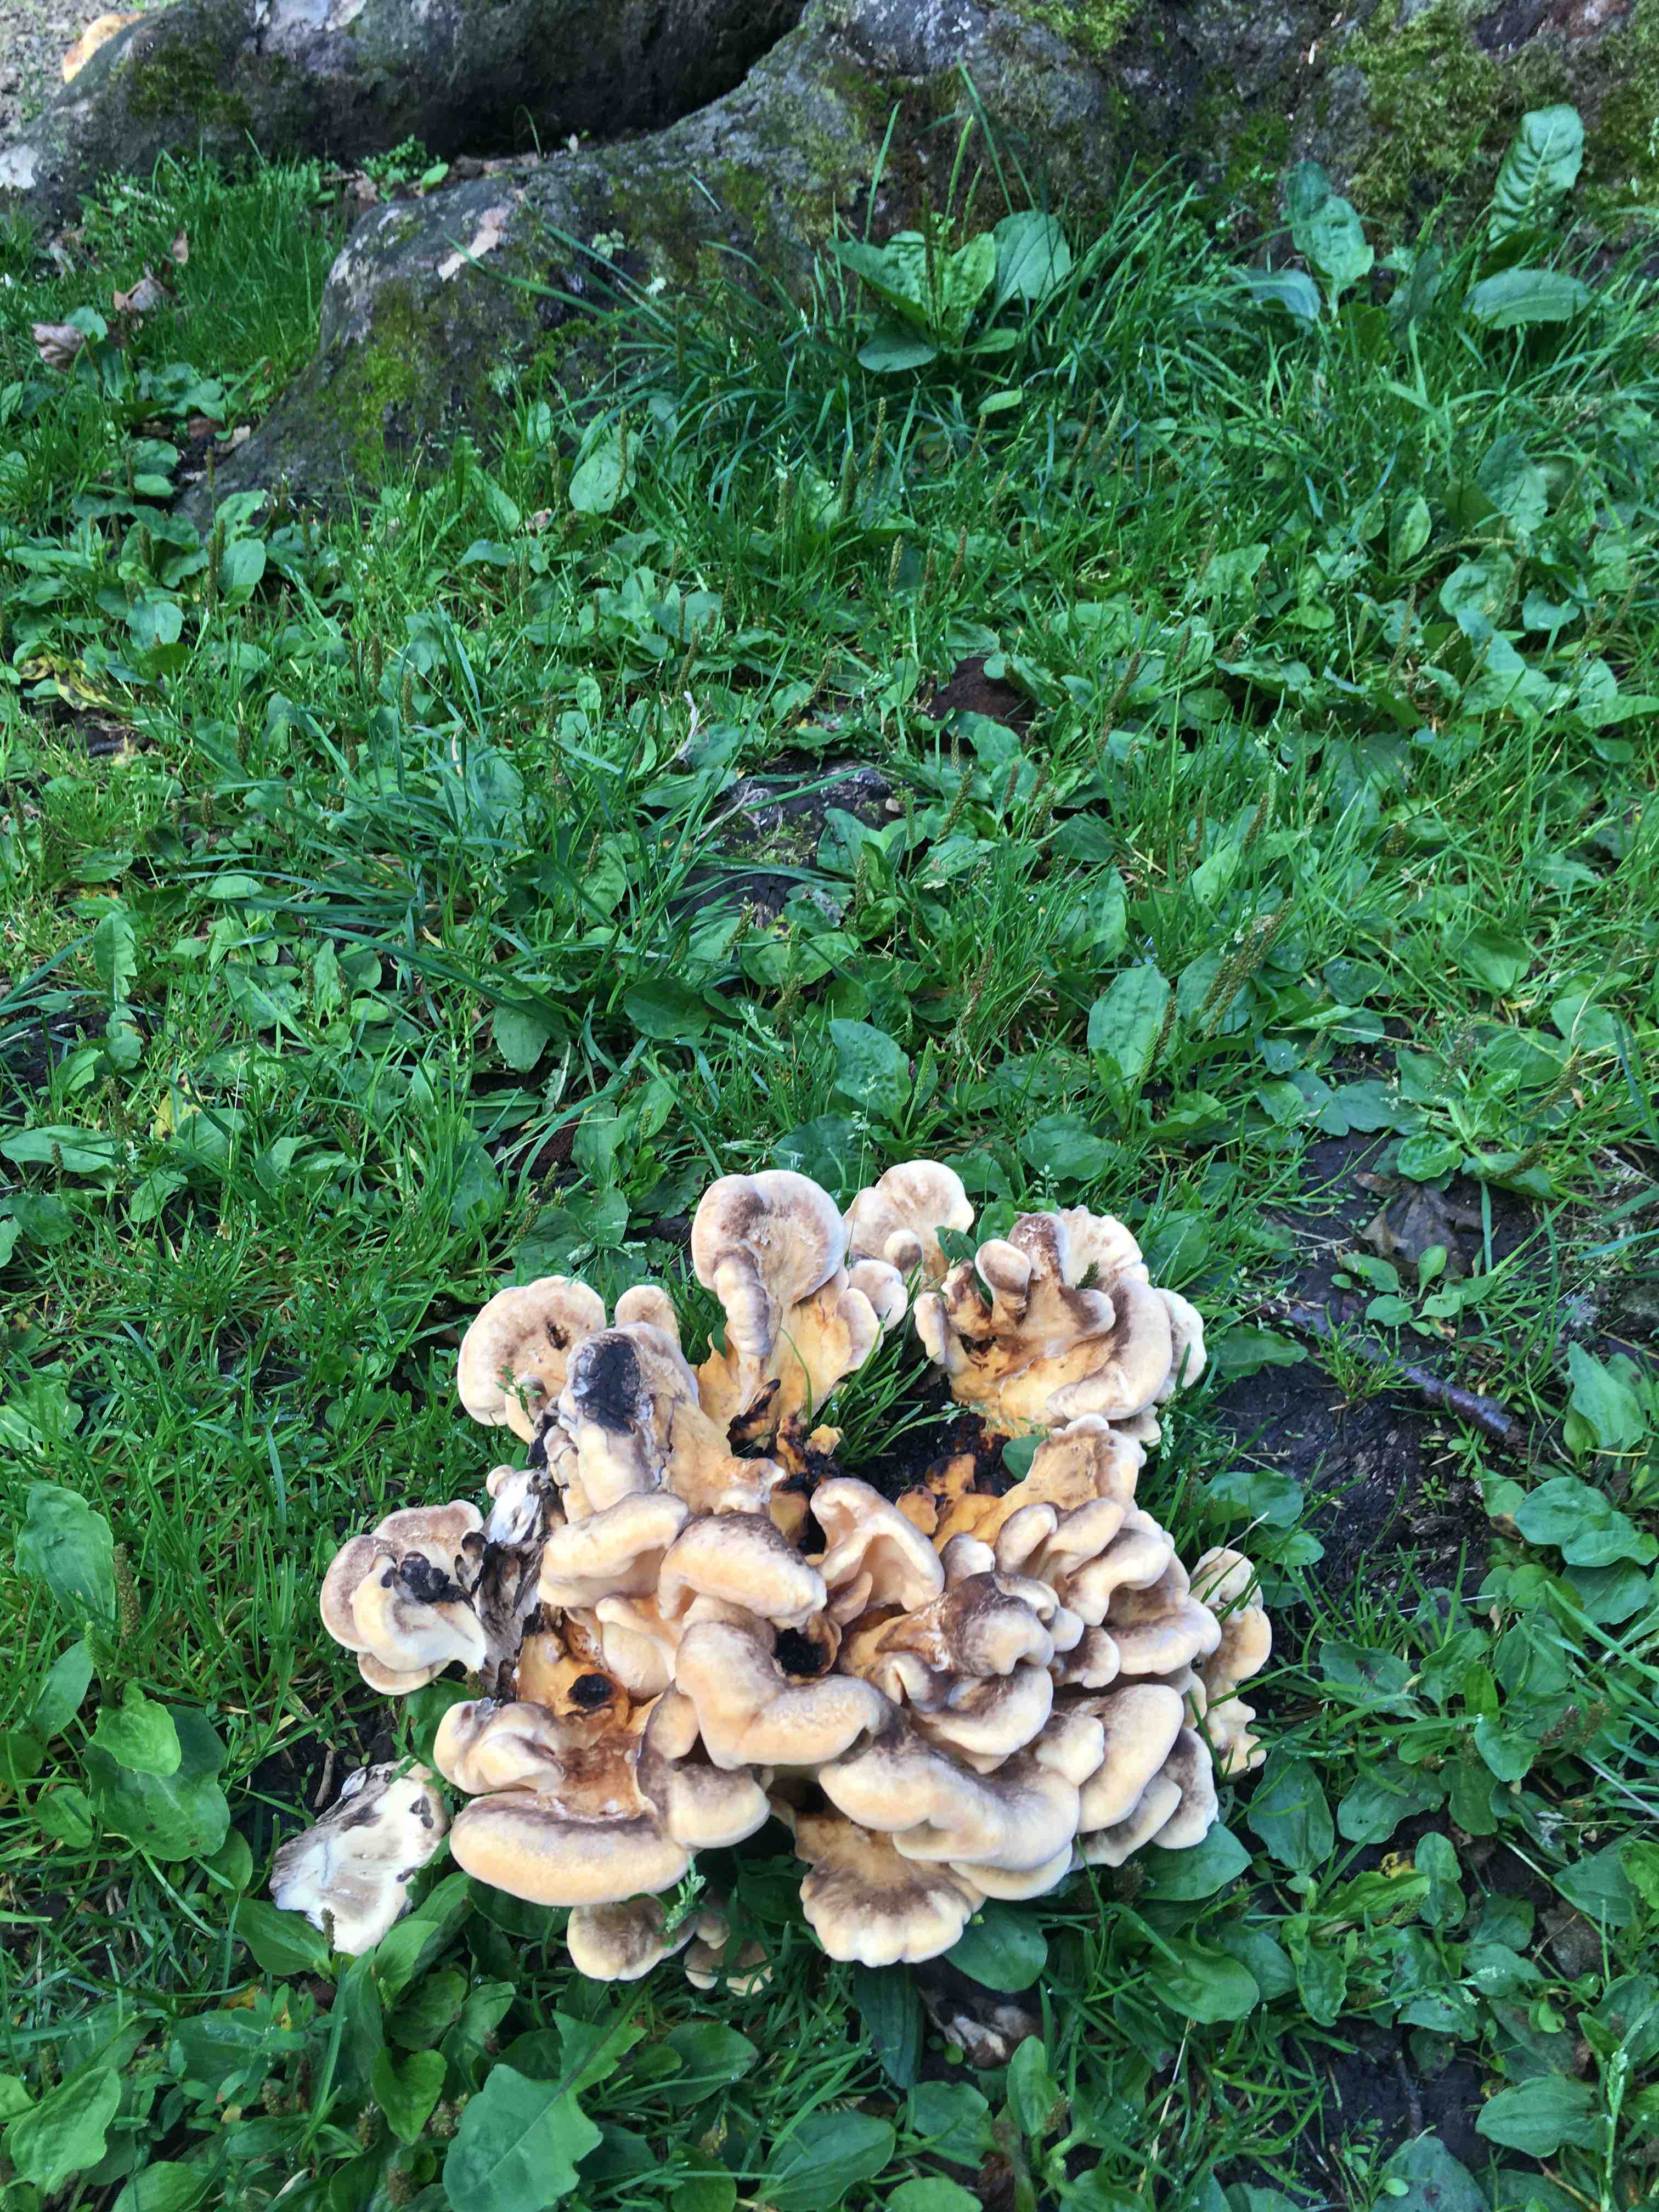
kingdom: Fungi
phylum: Basidiomycota
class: Agaricomycetes
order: Polyporales
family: Meripilaceae
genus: Meripilus
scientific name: Meripilus giganteus
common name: kæmpeporesvamp
